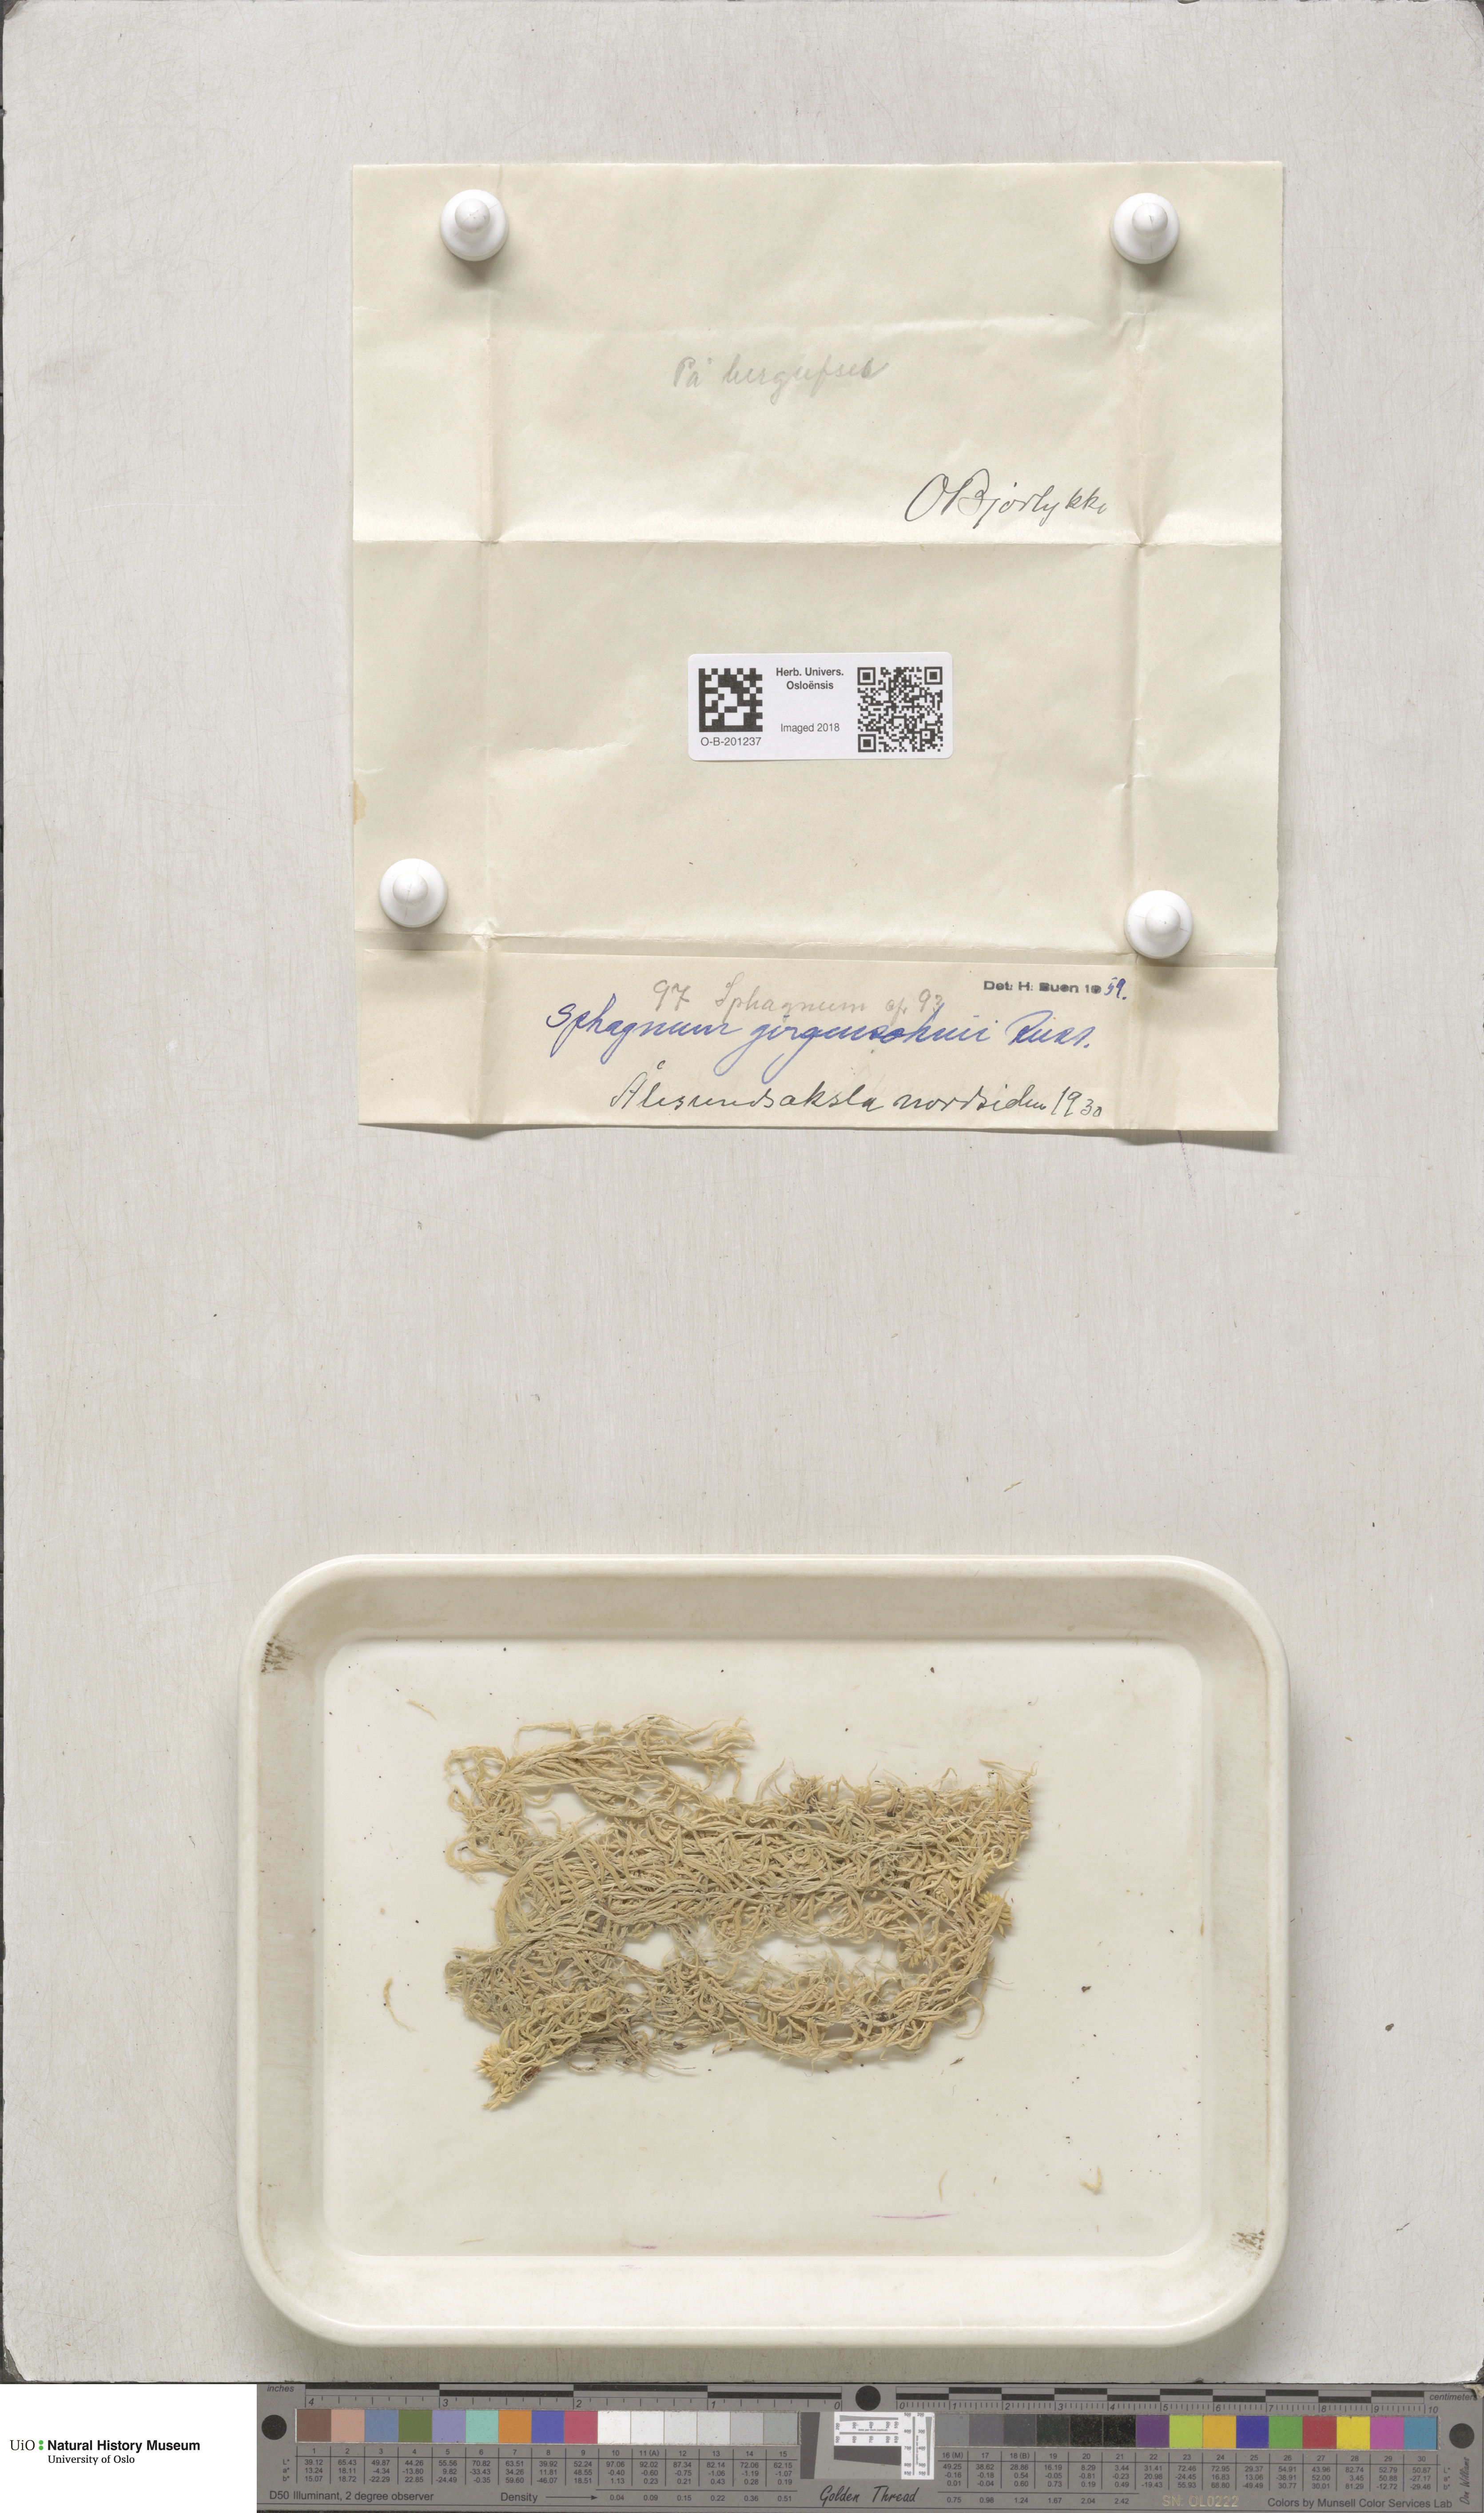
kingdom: Plantae
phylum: Bryophyta
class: Sphagnopsida
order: Sphagnales
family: Sphagnaceae
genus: Sphagnum
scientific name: Sphagnum girgensohnii
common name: Girgensohn's peat moss
